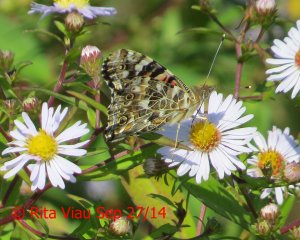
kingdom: Animalia
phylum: Arthropoda
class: Insecta
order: Lepidoptera
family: Nymphalidae
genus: Vanessa
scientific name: Vanessa cardui
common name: Painted Lady
